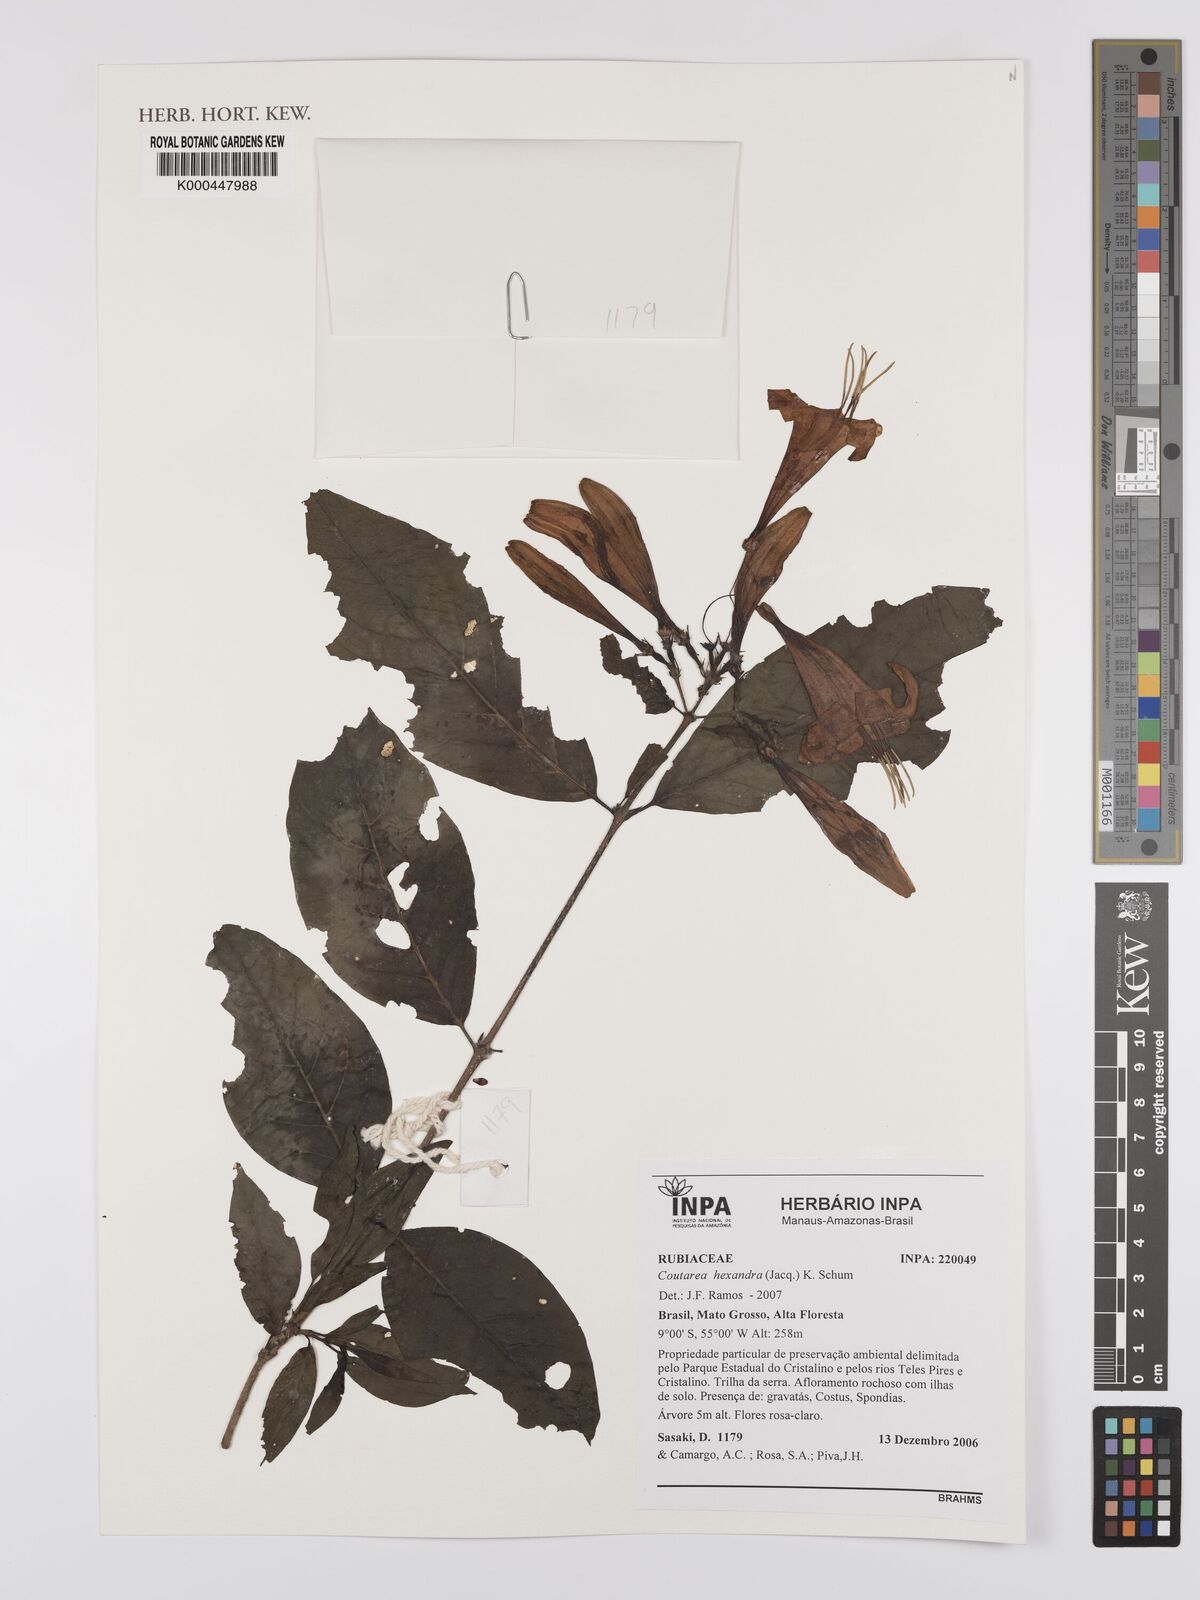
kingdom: Plantae
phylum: Tracheophyta
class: Magnoliopsida
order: Gentianales
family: Rubiaceae
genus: Coutarea
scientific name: Coutarea hexandra
